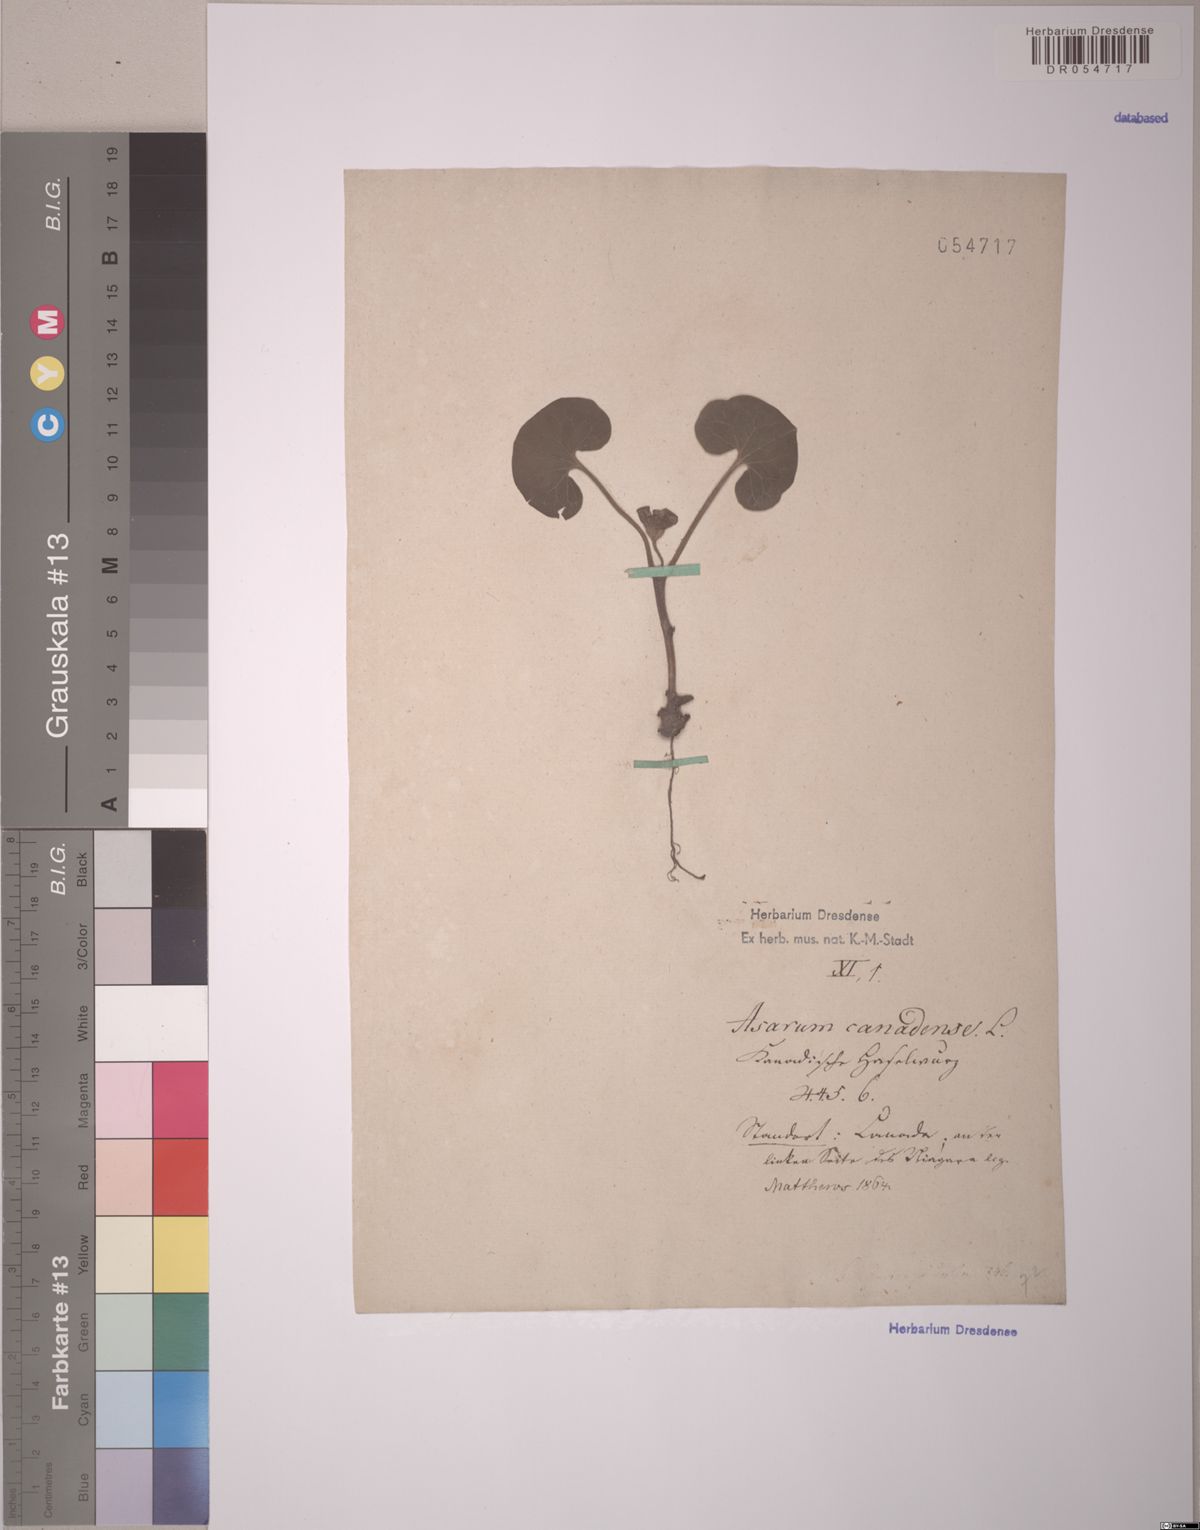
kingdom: Plantae
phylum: Tracheophyta
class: Magnoliopsida
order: Piperales
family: Aristolochiaceae
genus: Asarum
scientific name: Asarum canadense
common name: Wild ginger
